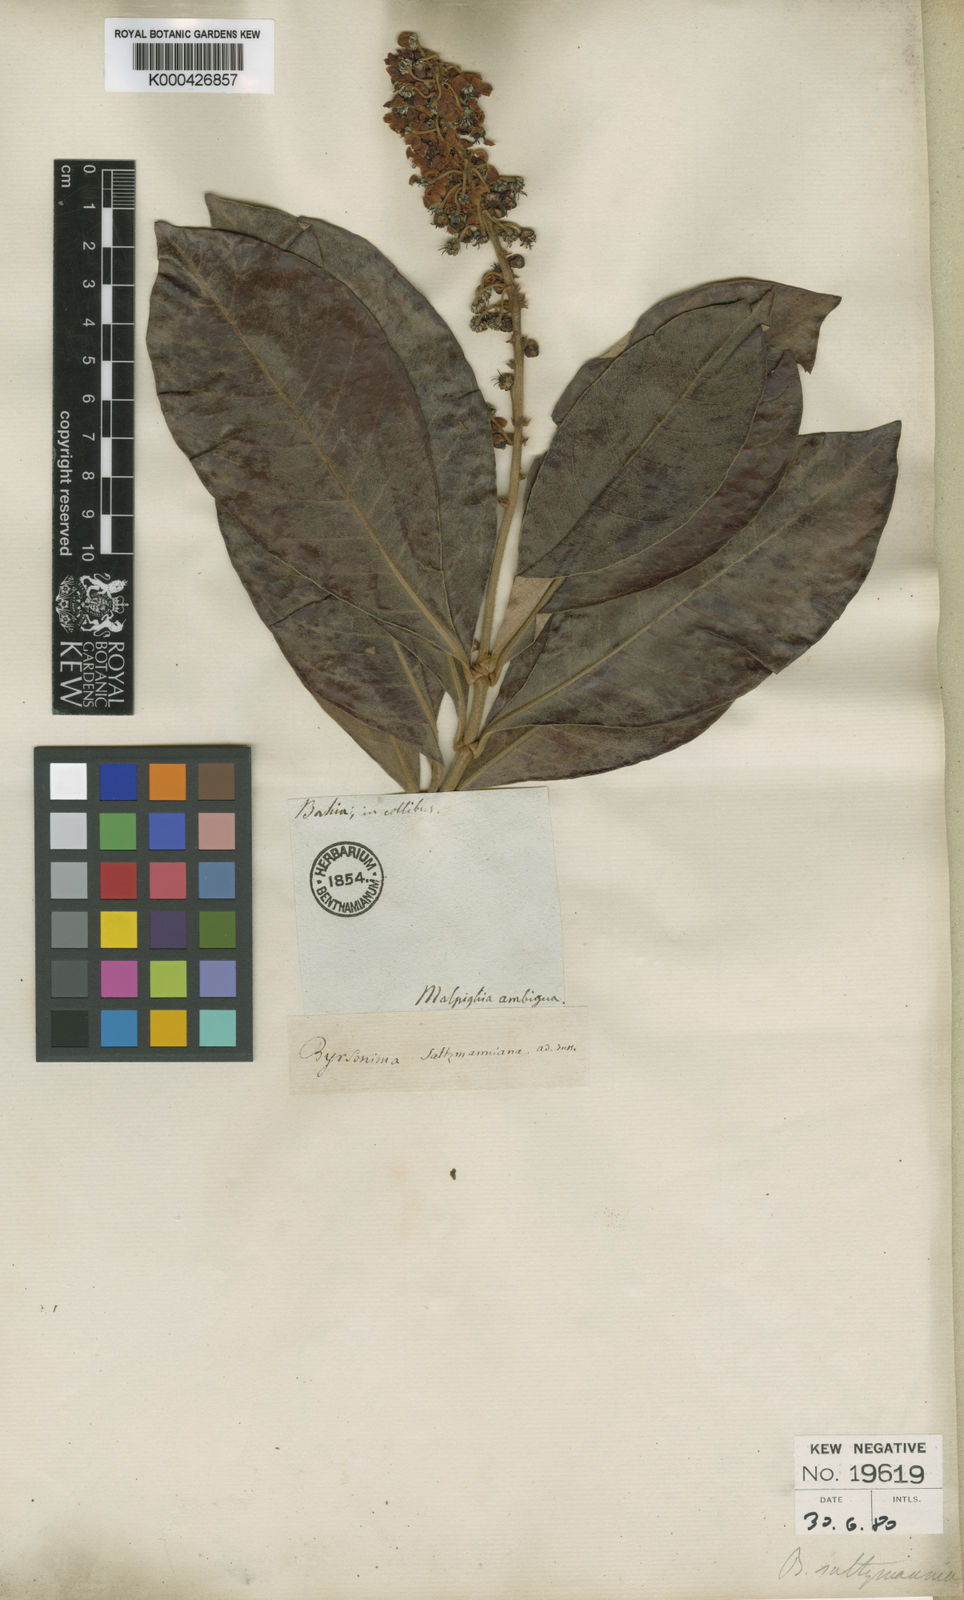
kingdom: Plantae
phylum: Tracheophyta
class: Magnoliopsida
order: Malpighiales
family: Malpighiaceae
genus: Byrsonima
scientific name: Byrsonima salzmanniana
